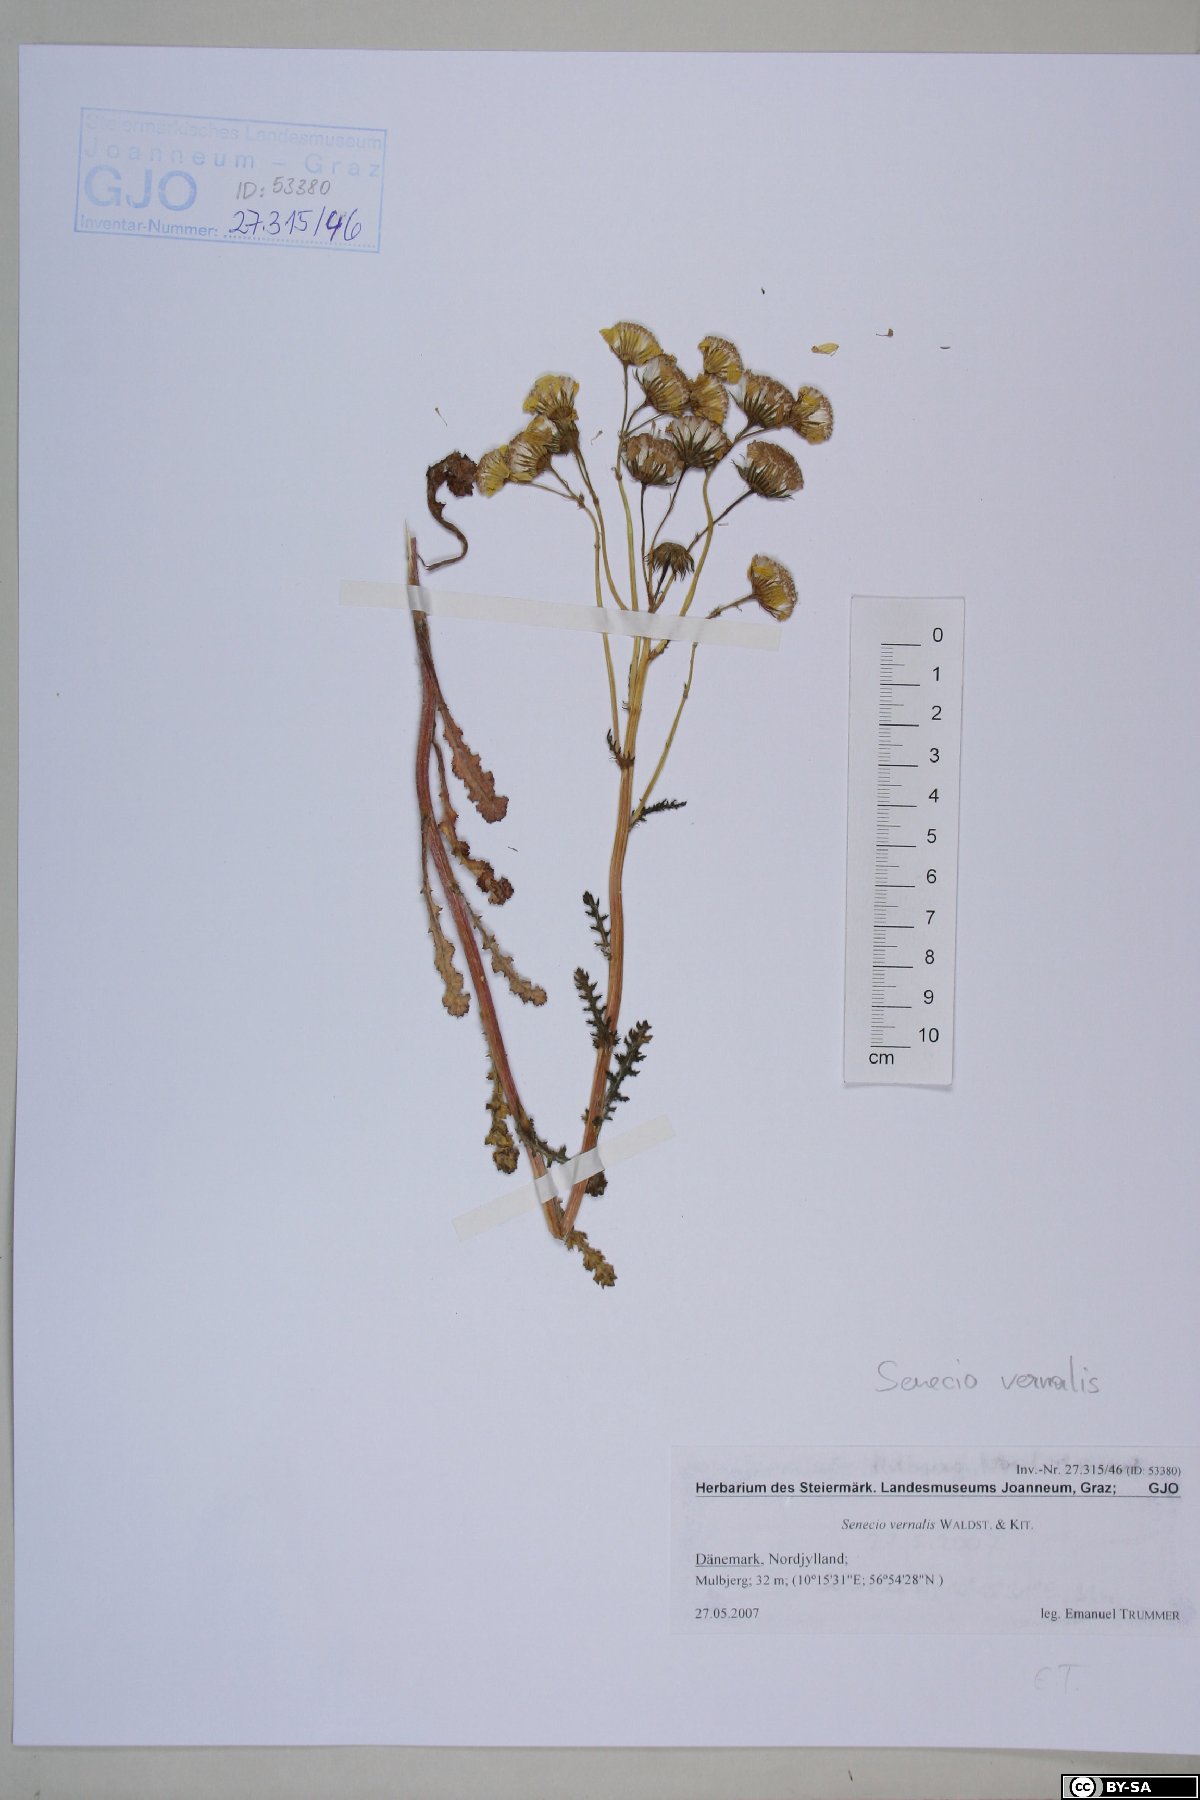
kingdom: Plantae
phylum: Tracheophyta
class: Magnoliopsida
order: Asterales
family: Asteraceae
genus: Senecio
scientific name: Senecio vernalis
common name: Eastern groundsel
